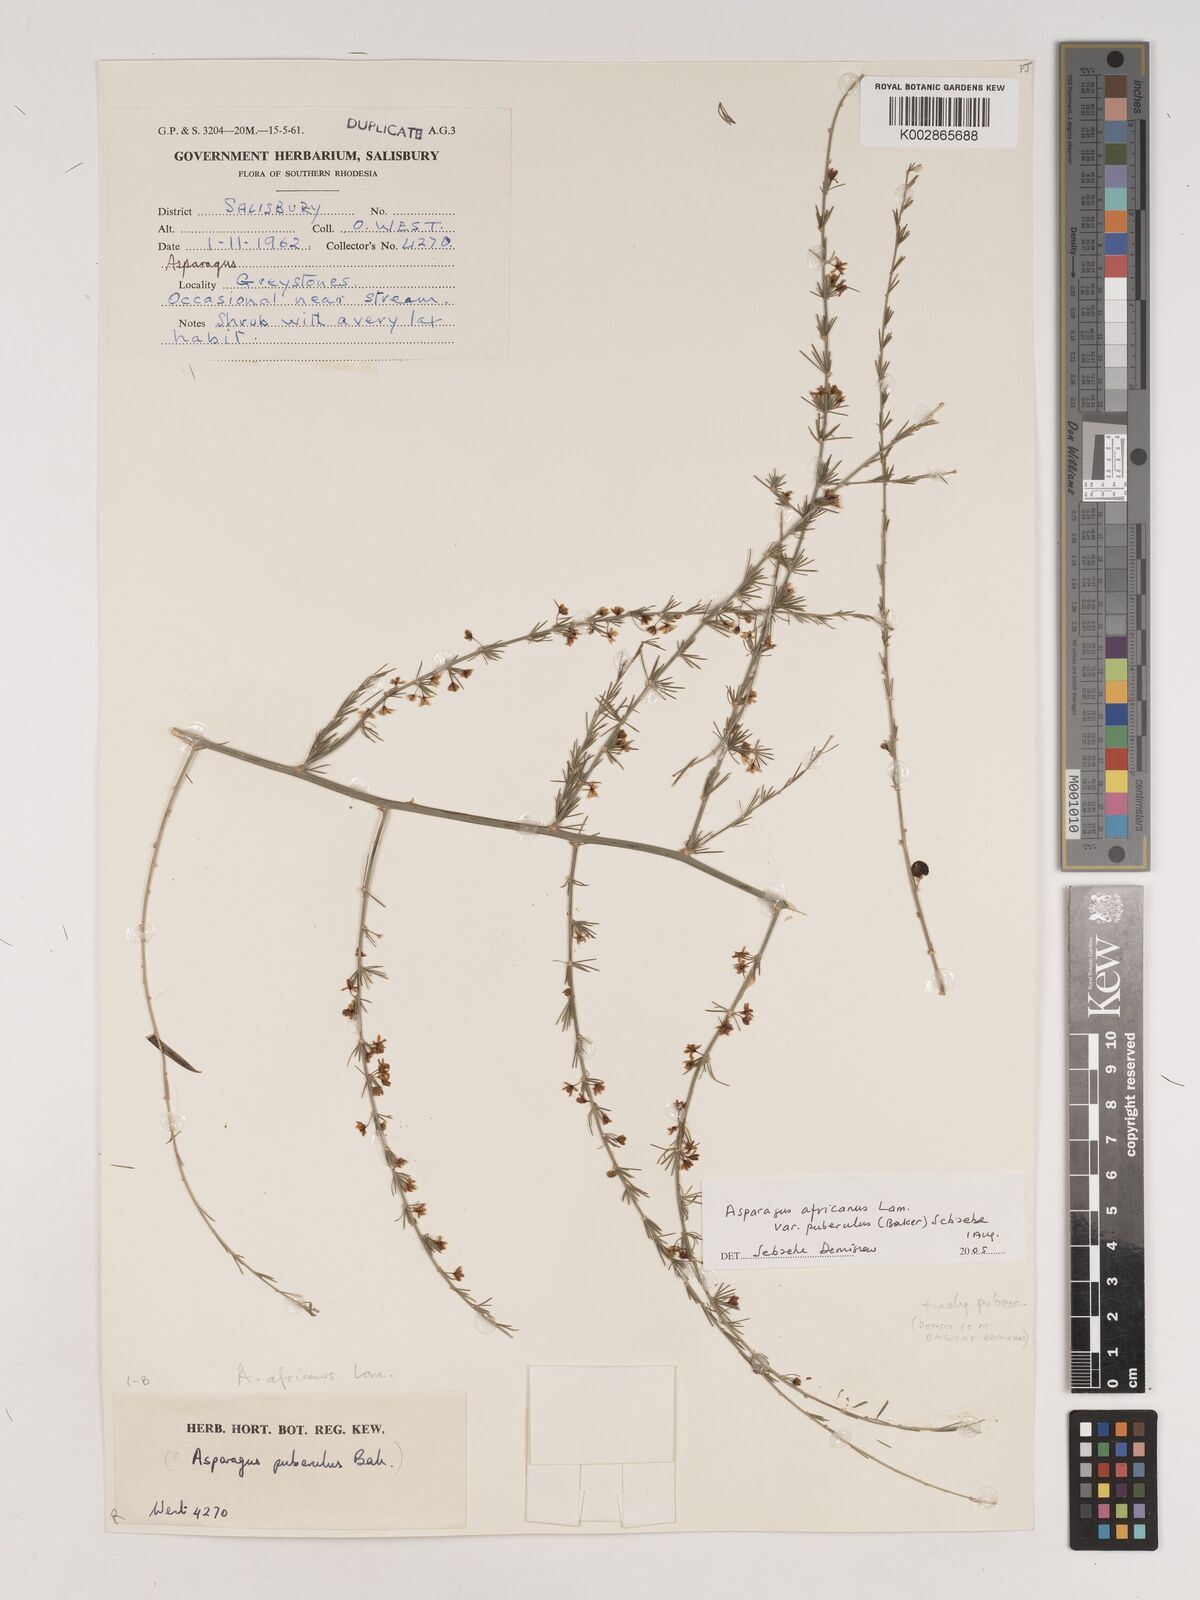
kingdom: Plantae
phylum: Tracheophyta
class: Liliopsida
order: Asparagales
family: Asparagaceae
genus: Asparagus
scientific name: Asparagus
